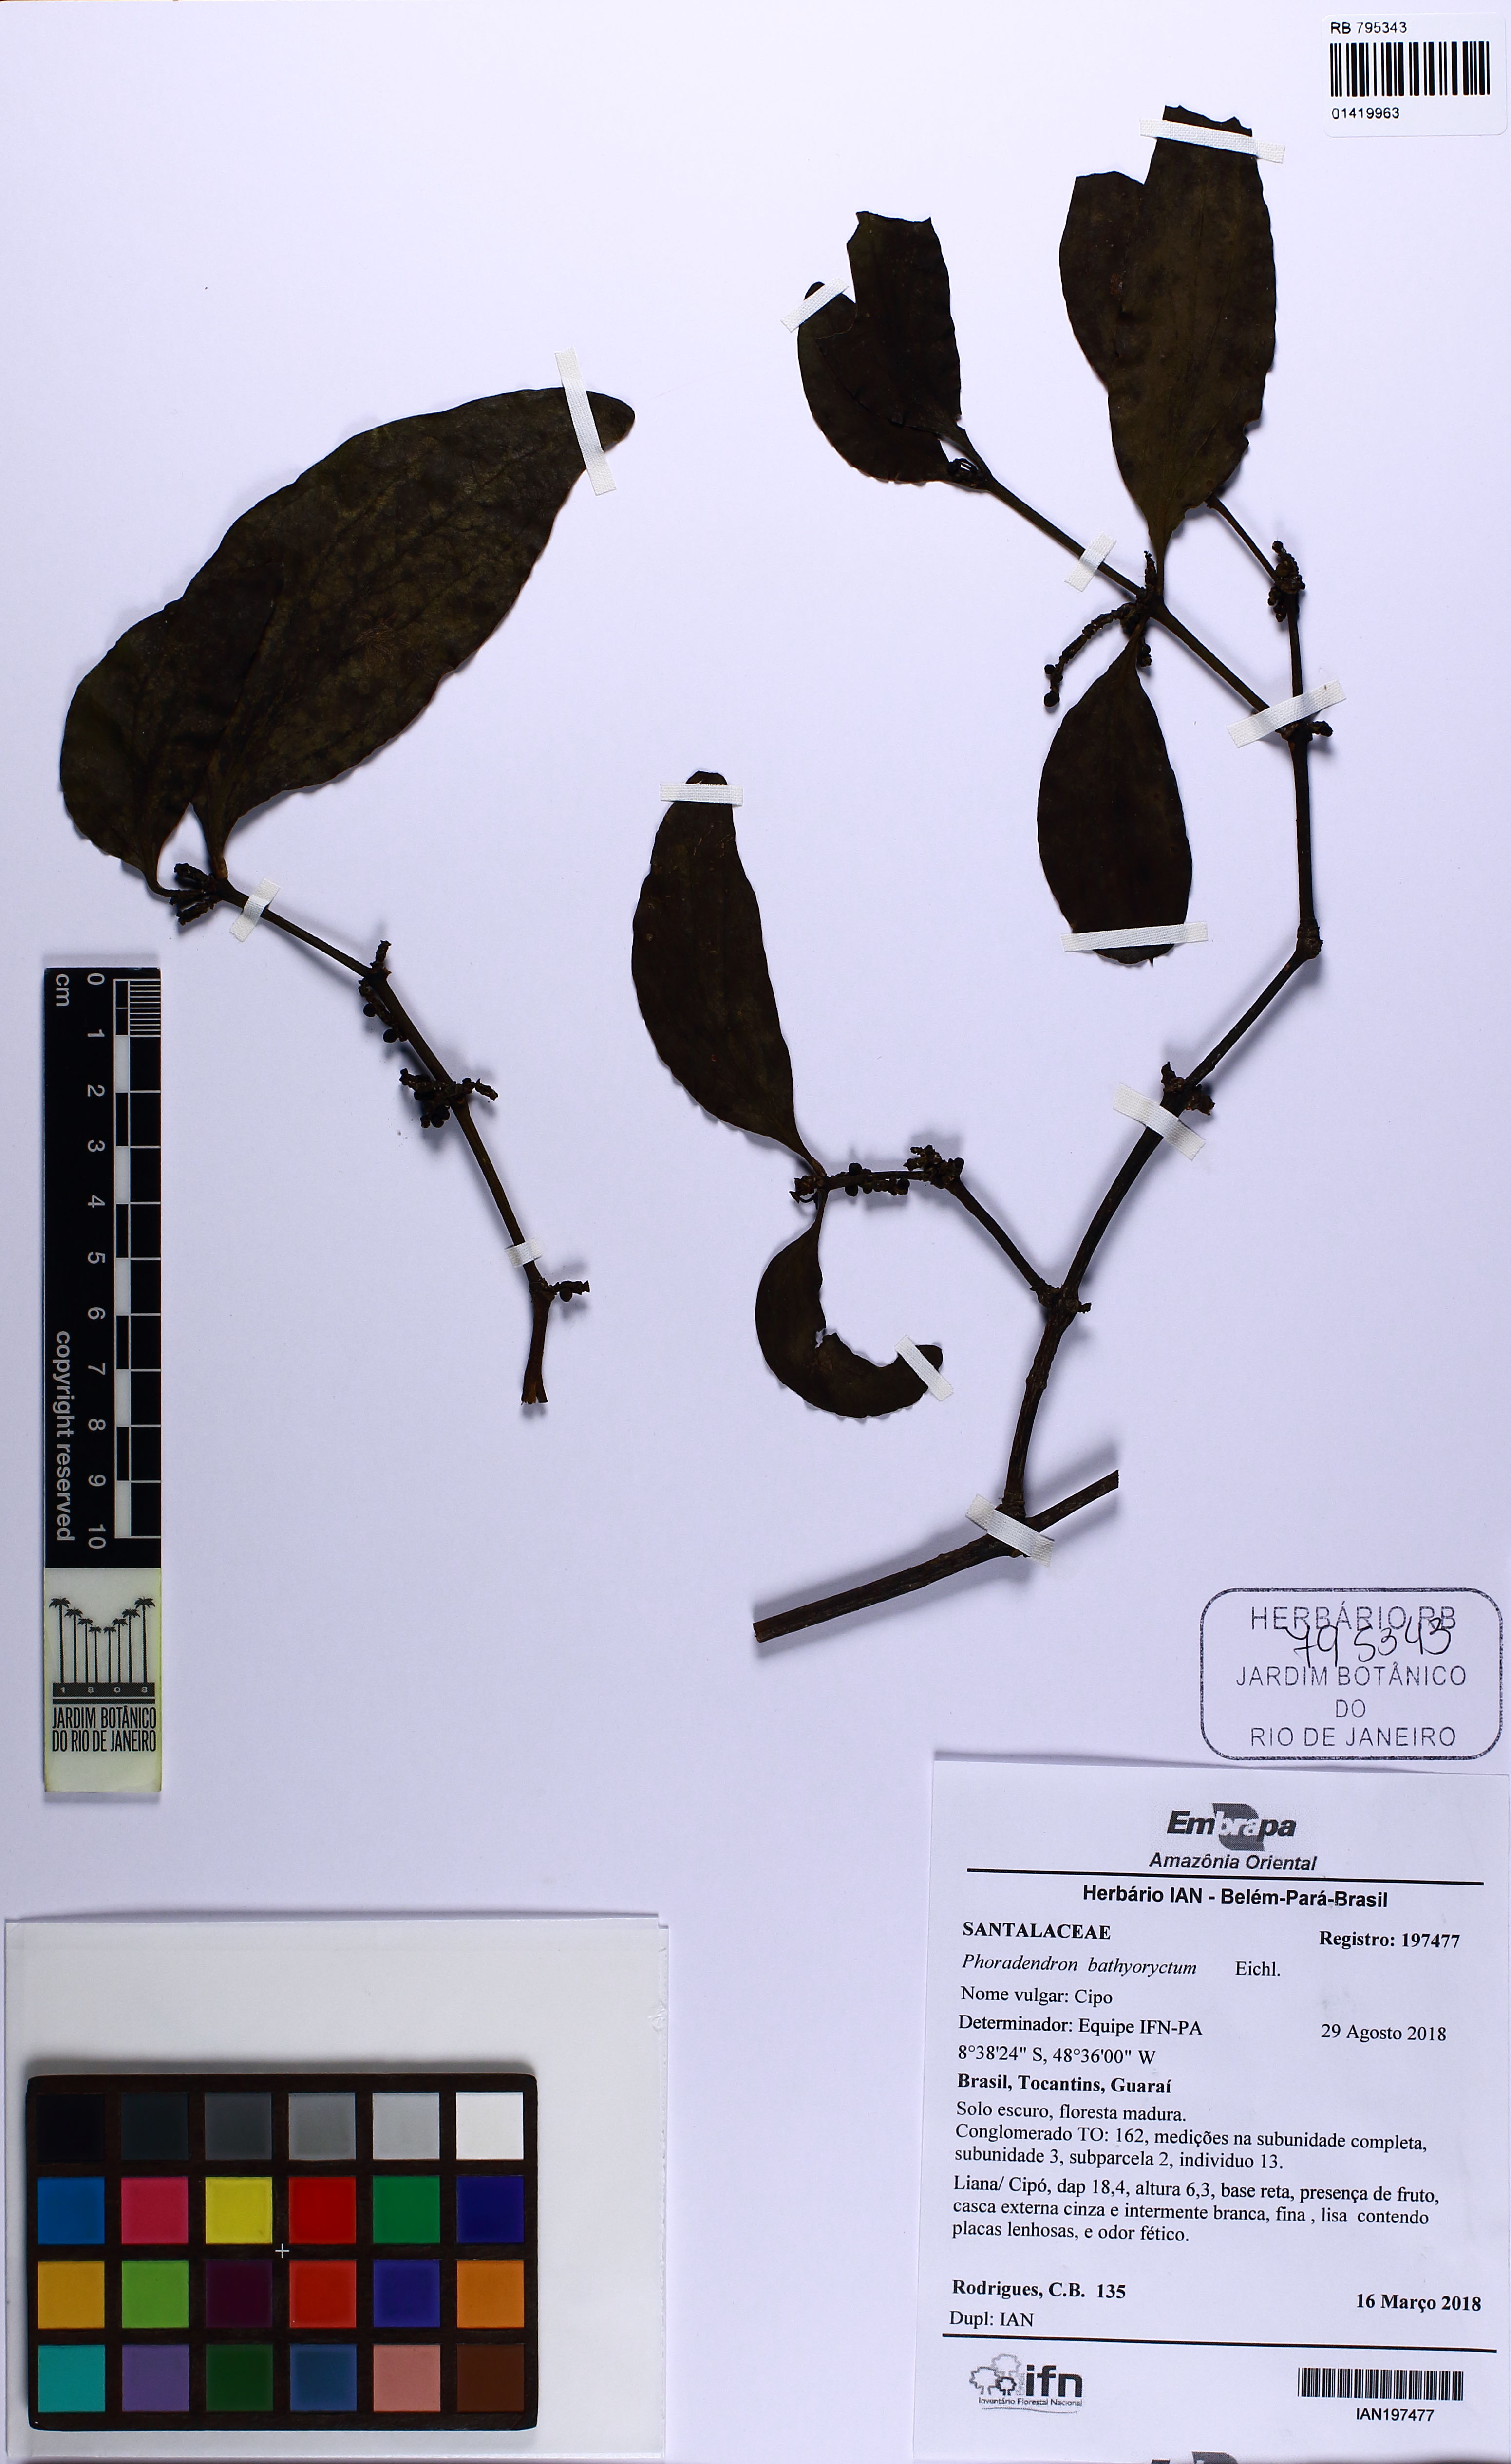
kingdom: Plantae
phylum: Tracheophyta
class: Magnoliopsida
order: Santalales
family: Viscaceae
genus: Phoradendron
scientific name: Phoradendron bathyoryctum
